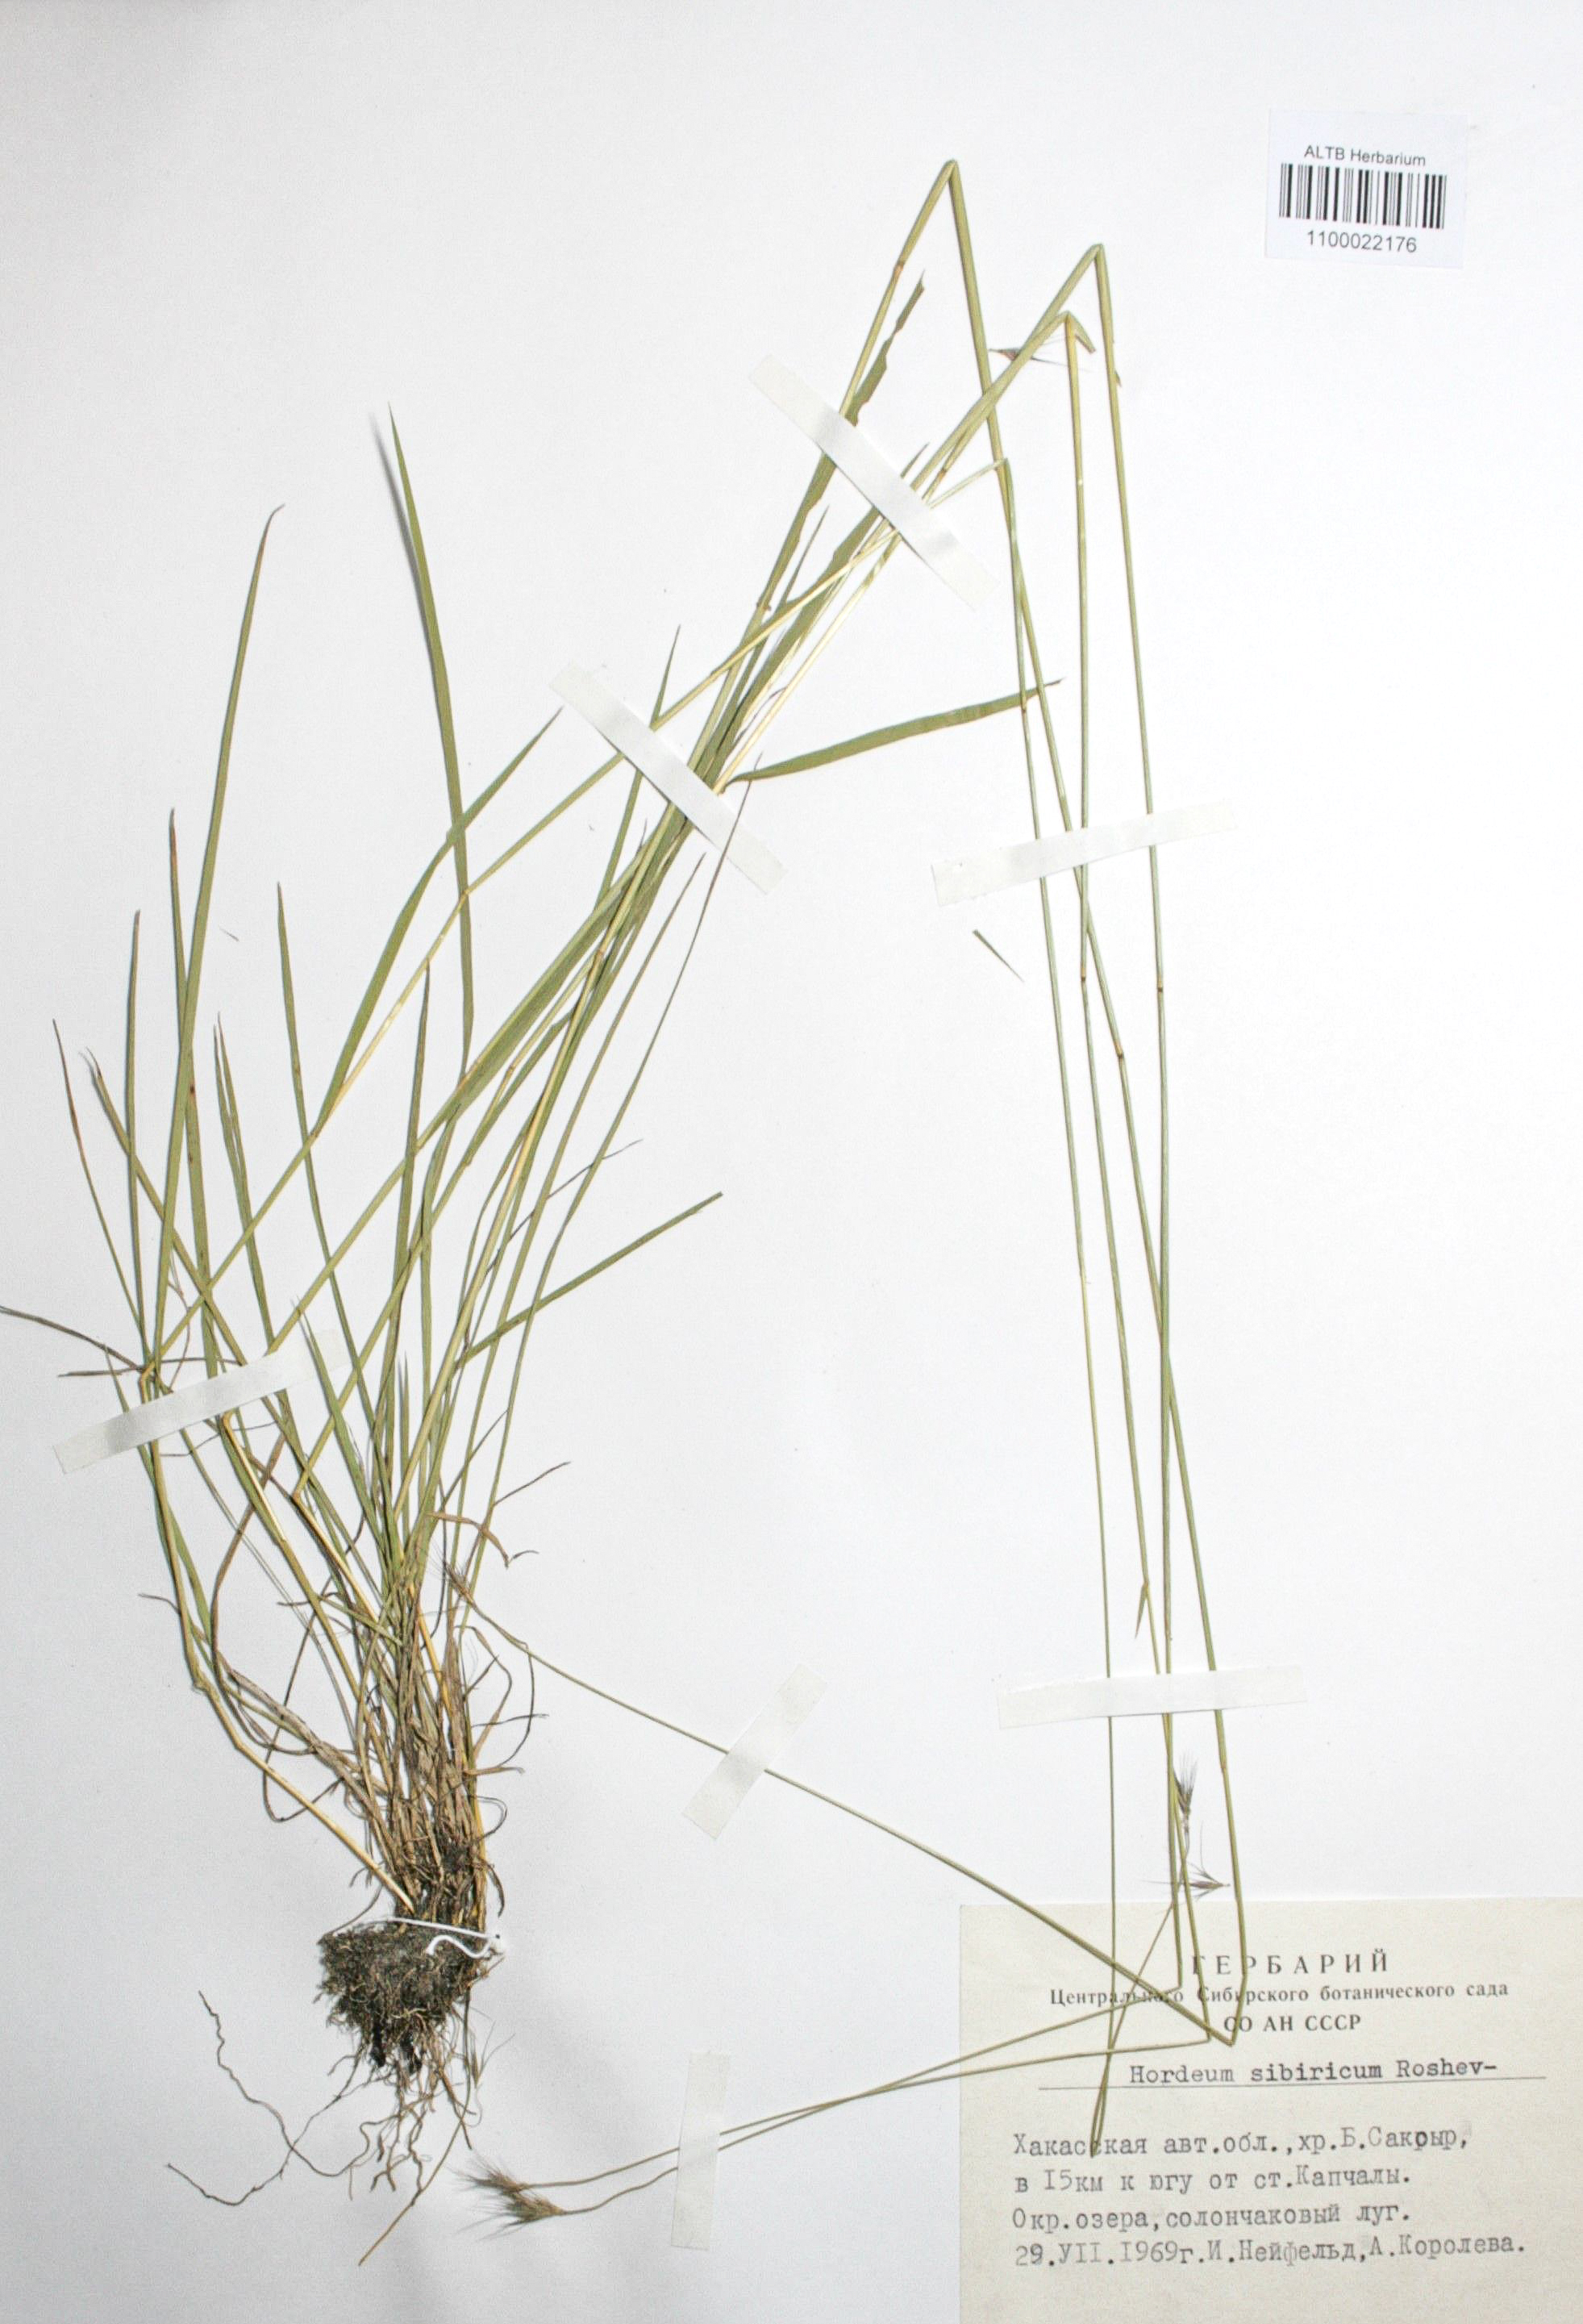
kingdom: Plantae
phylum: Tracheophyta
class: Liliopsida
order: Poales
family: Poaceae
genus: Hordeum
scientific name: Hordeum roshevitzii
